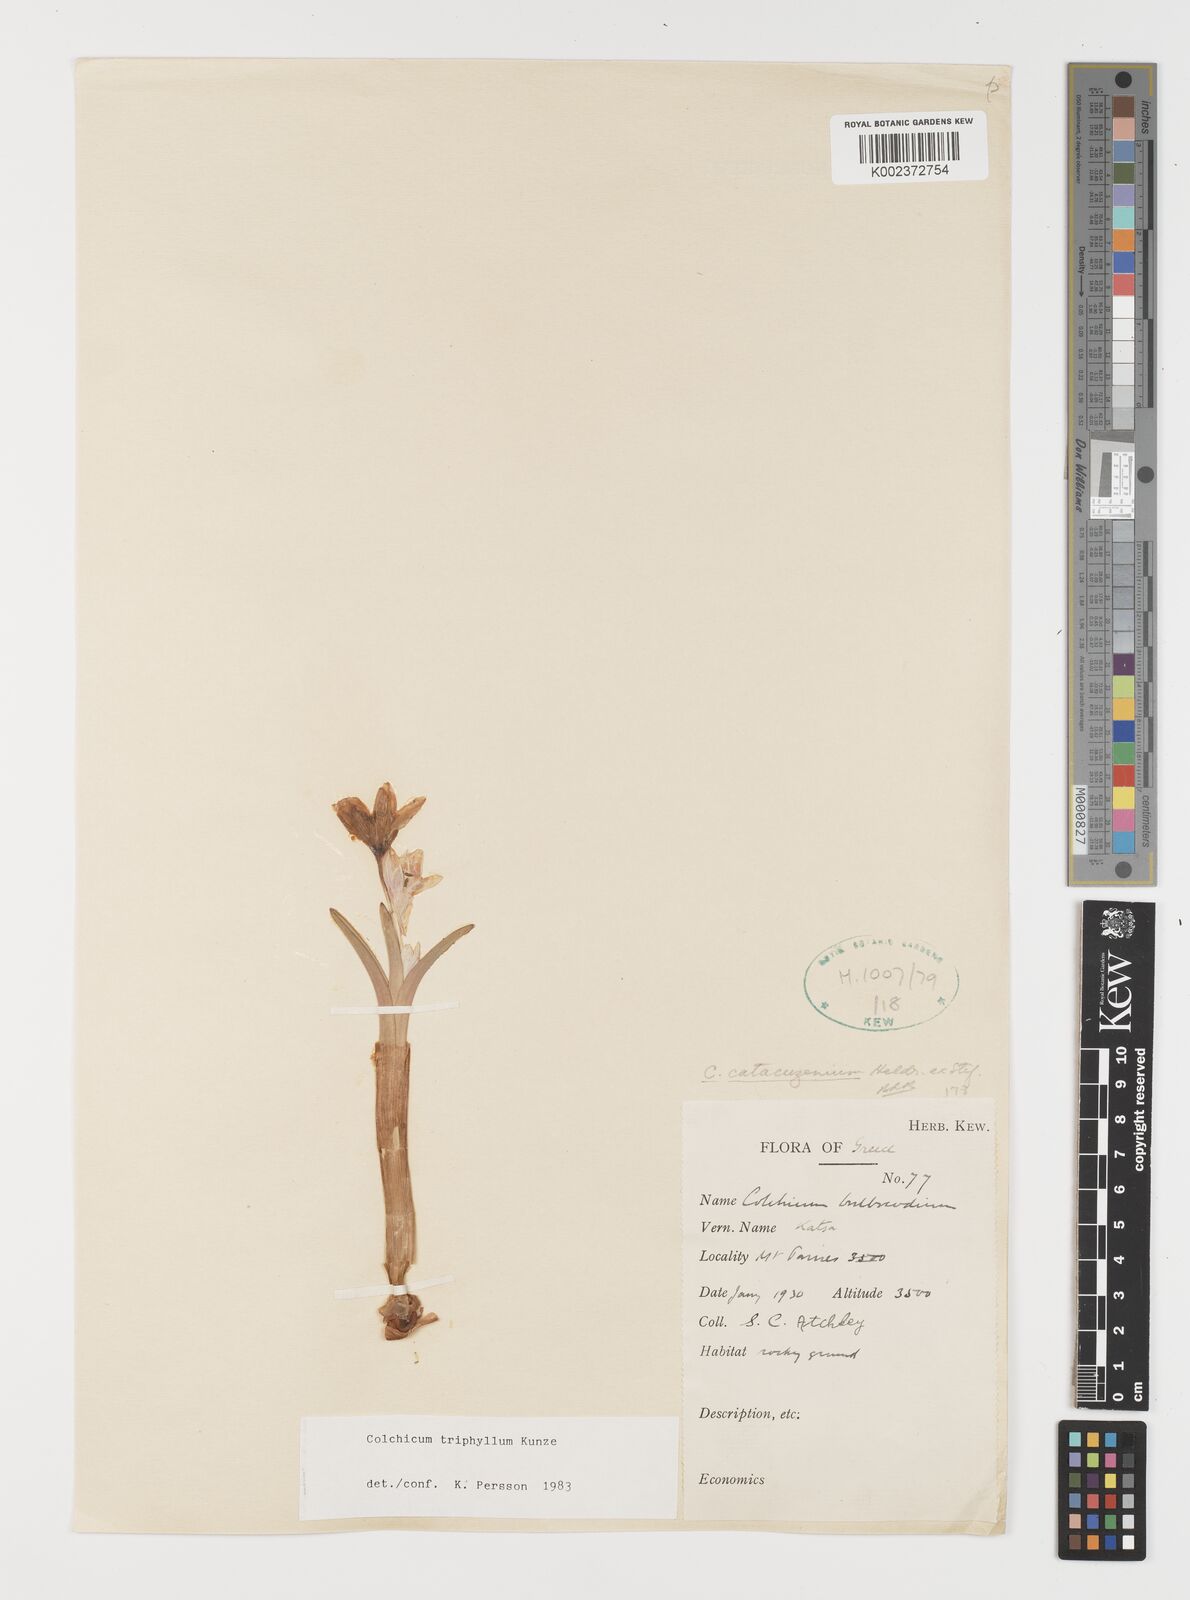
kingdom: Plantae
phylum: Tracheophyta
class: Liliopsida
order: Liliales
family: Colchicaceae
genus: Colchicum
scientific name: Colchicum triphyllum
